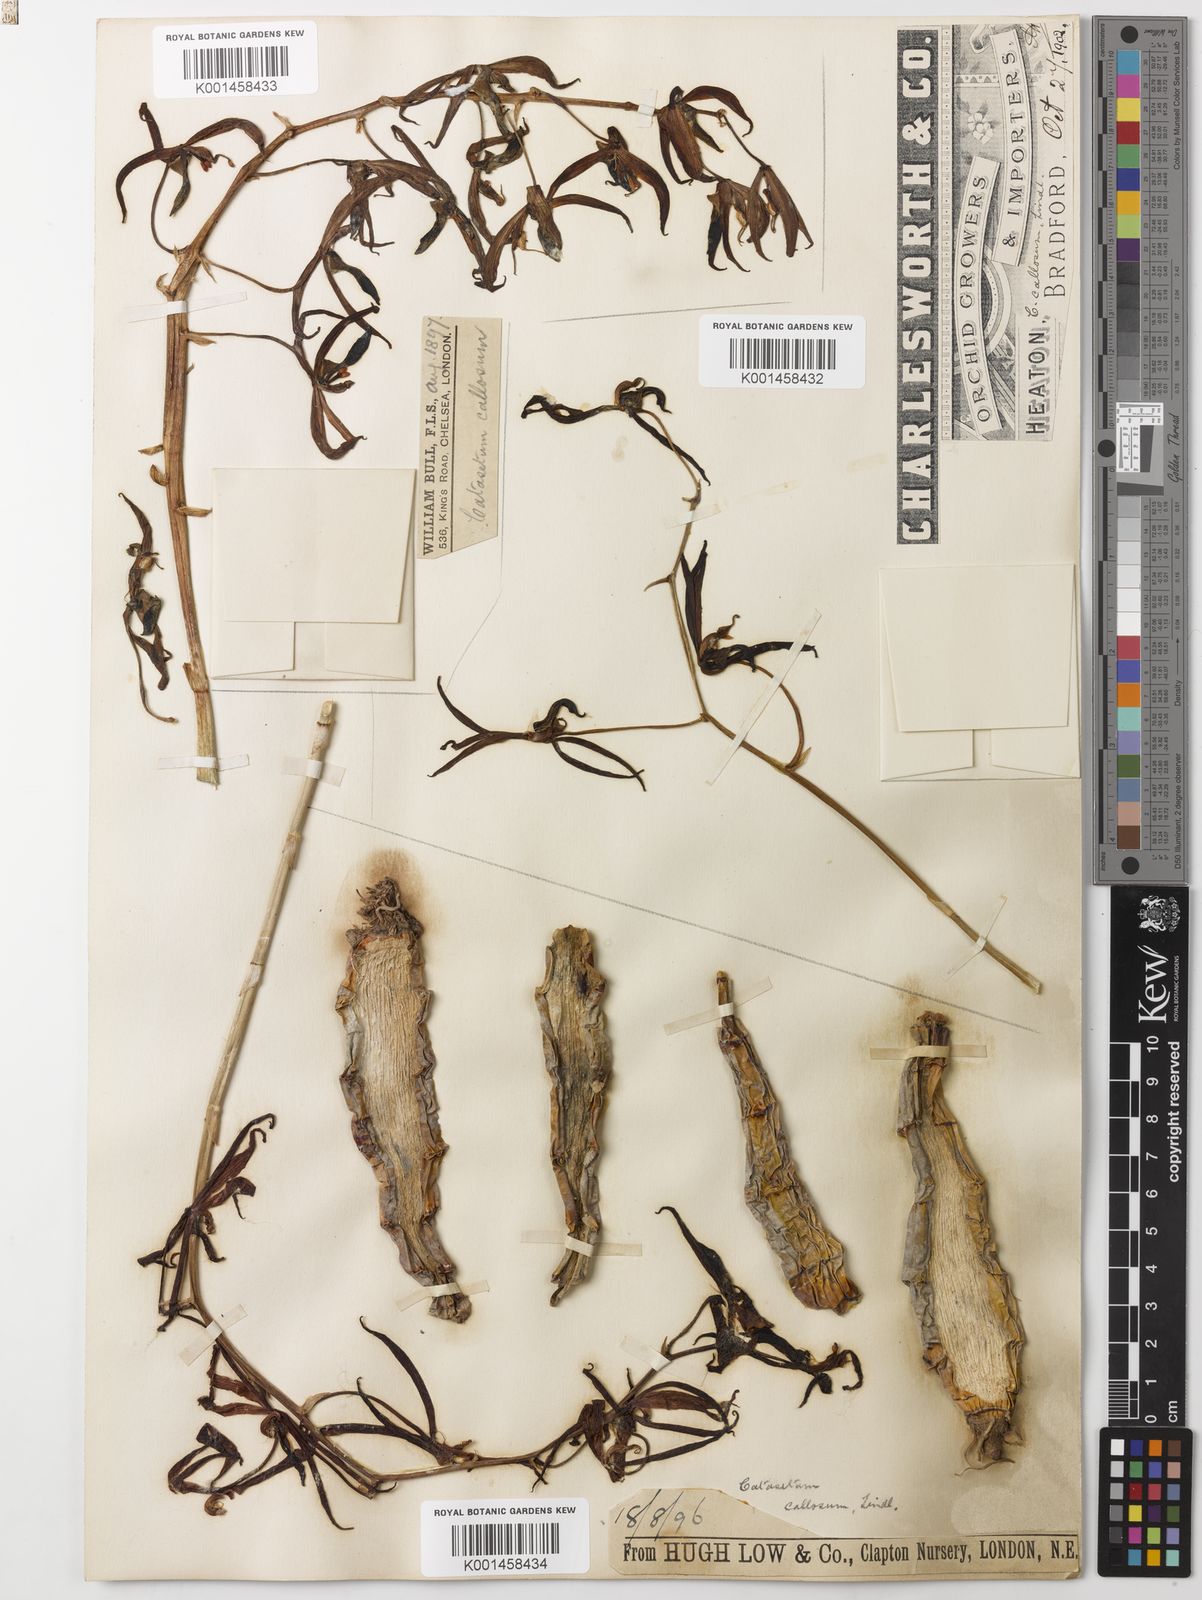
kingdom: Plantae
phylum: Tracheophyta
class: Liliopsida
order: Asparagales
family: Orchidaceae
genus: Catasetum
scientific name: Catasetum callosum
